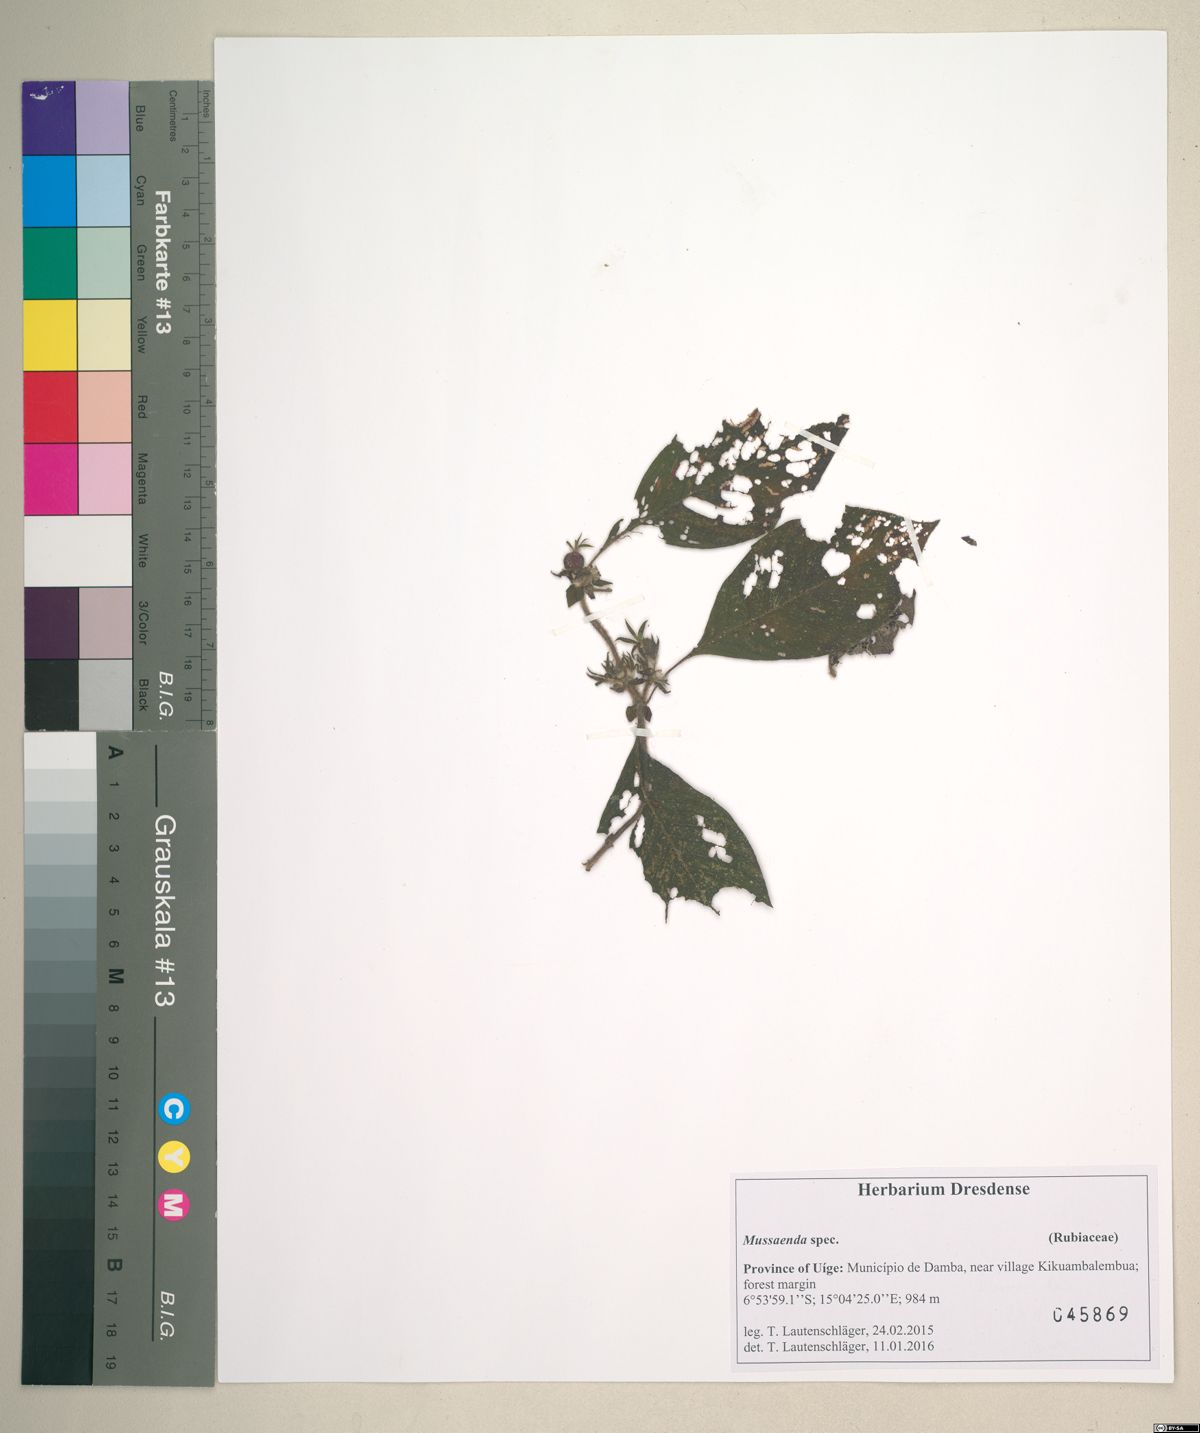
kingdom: Plantae
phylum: Tracheophyta
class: Magnoliopsida
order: Gentianales
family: Rubiaceae
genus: Sabicea
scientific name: Sabicea venosa
